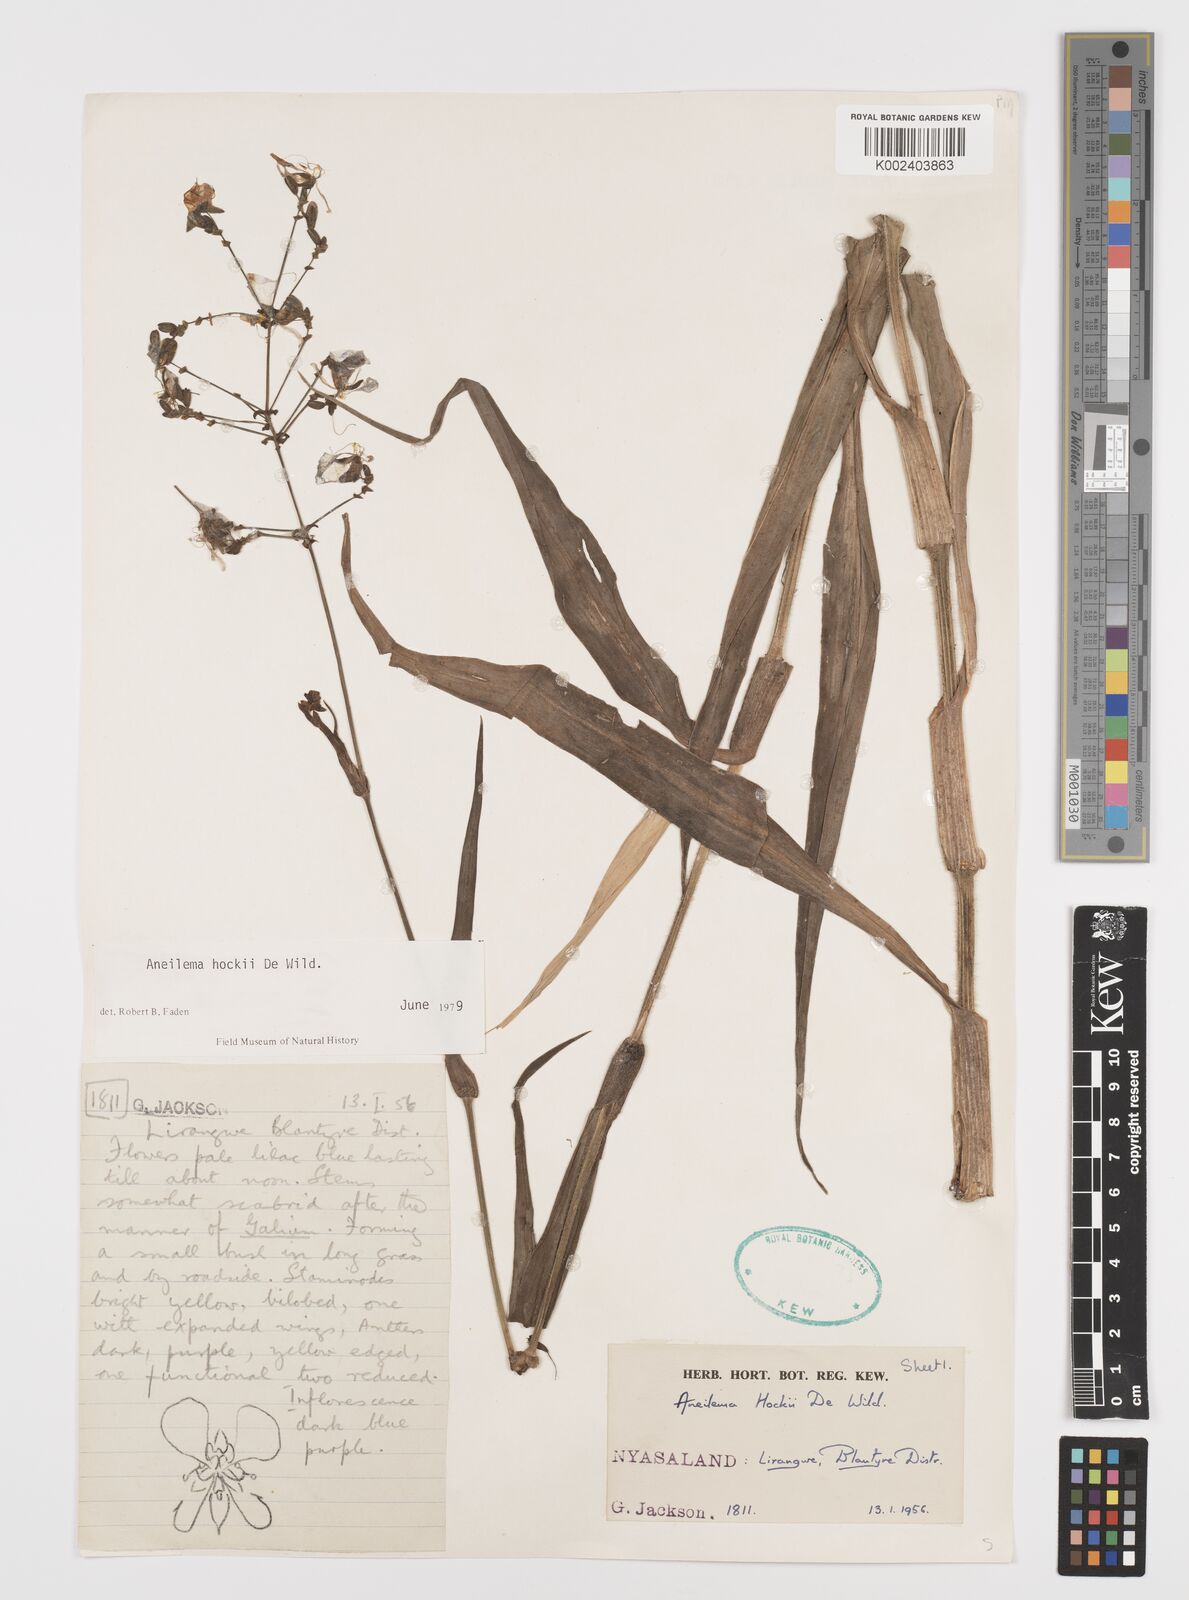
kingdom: Plantae
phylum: Tracheophyta
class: Liliopsida
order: Commelinales
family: Commelinaceae
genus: Aneilema
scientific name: Aneilema hockii
